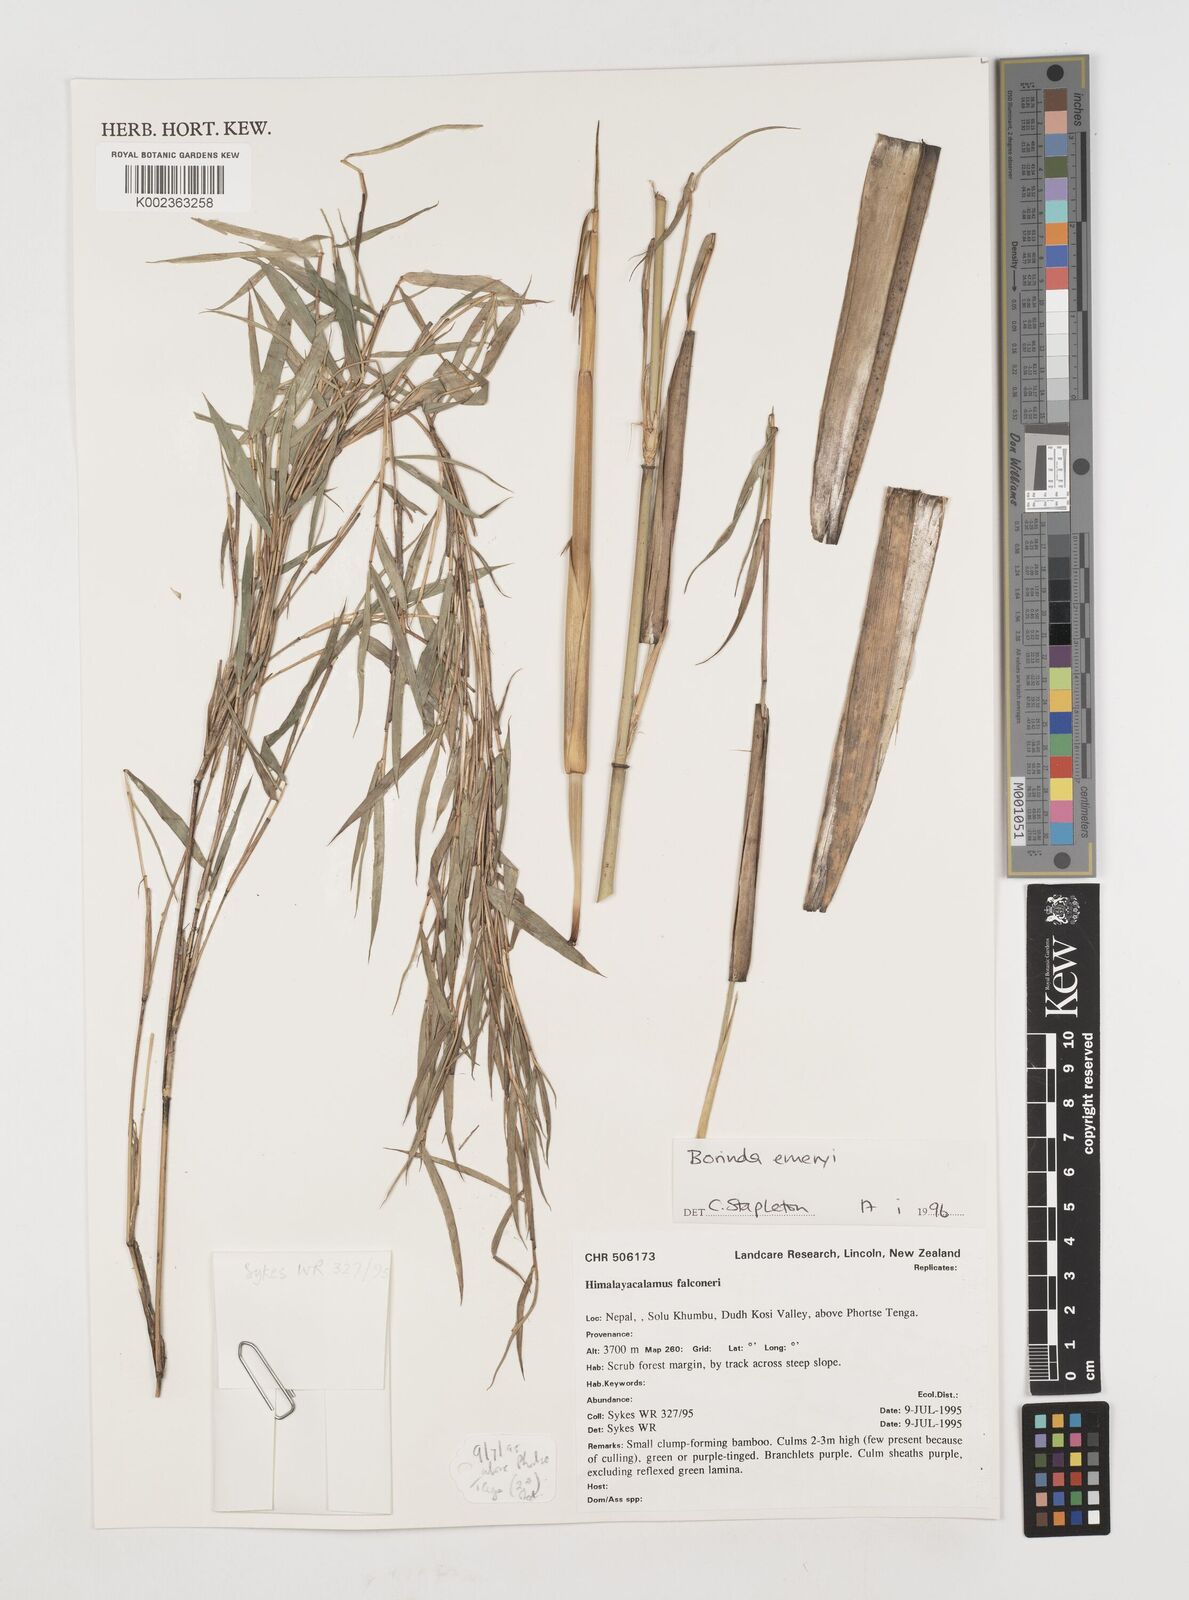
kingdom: Plantae
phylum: Tracheophyta
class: Liliopsida
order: Poales
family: Poaceae
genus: Fargesia
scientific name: Fargesia
